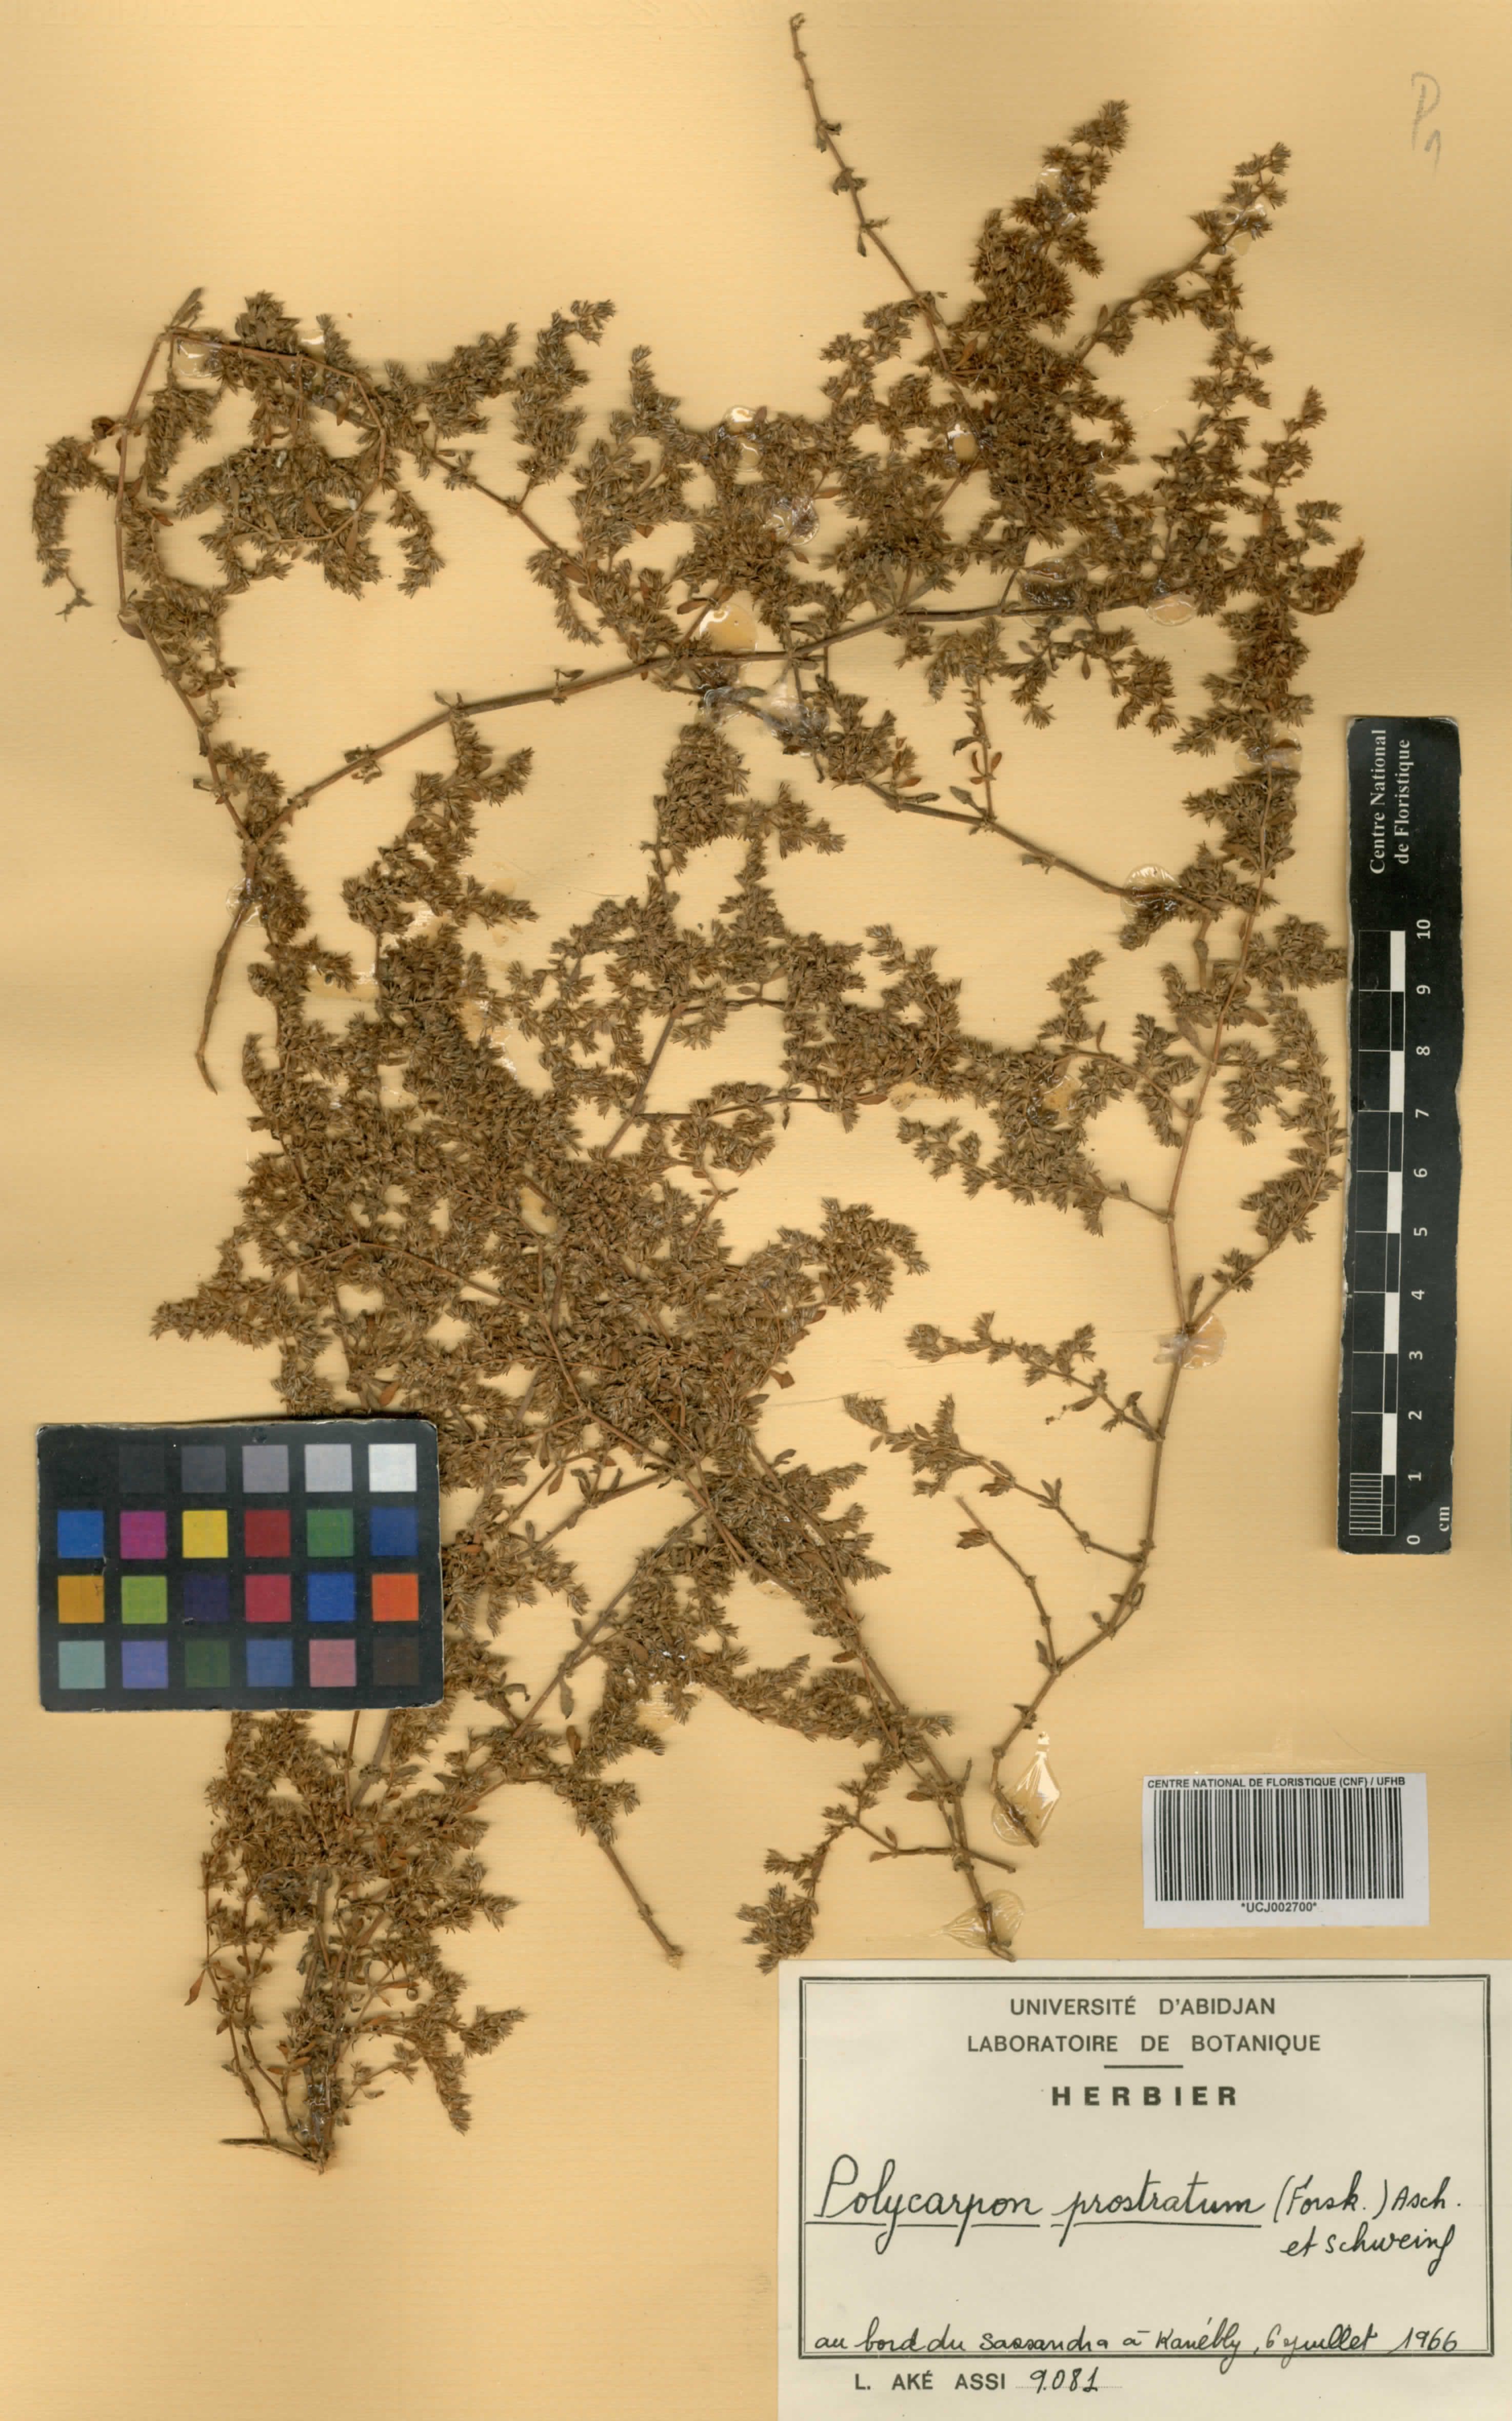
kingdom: Plantae
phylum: Tracheophyta
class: Magnoliopsida
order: Caryophyllales
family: Caryophyllaceae
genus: Polycarpon
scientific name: Polycarpon prostratum
